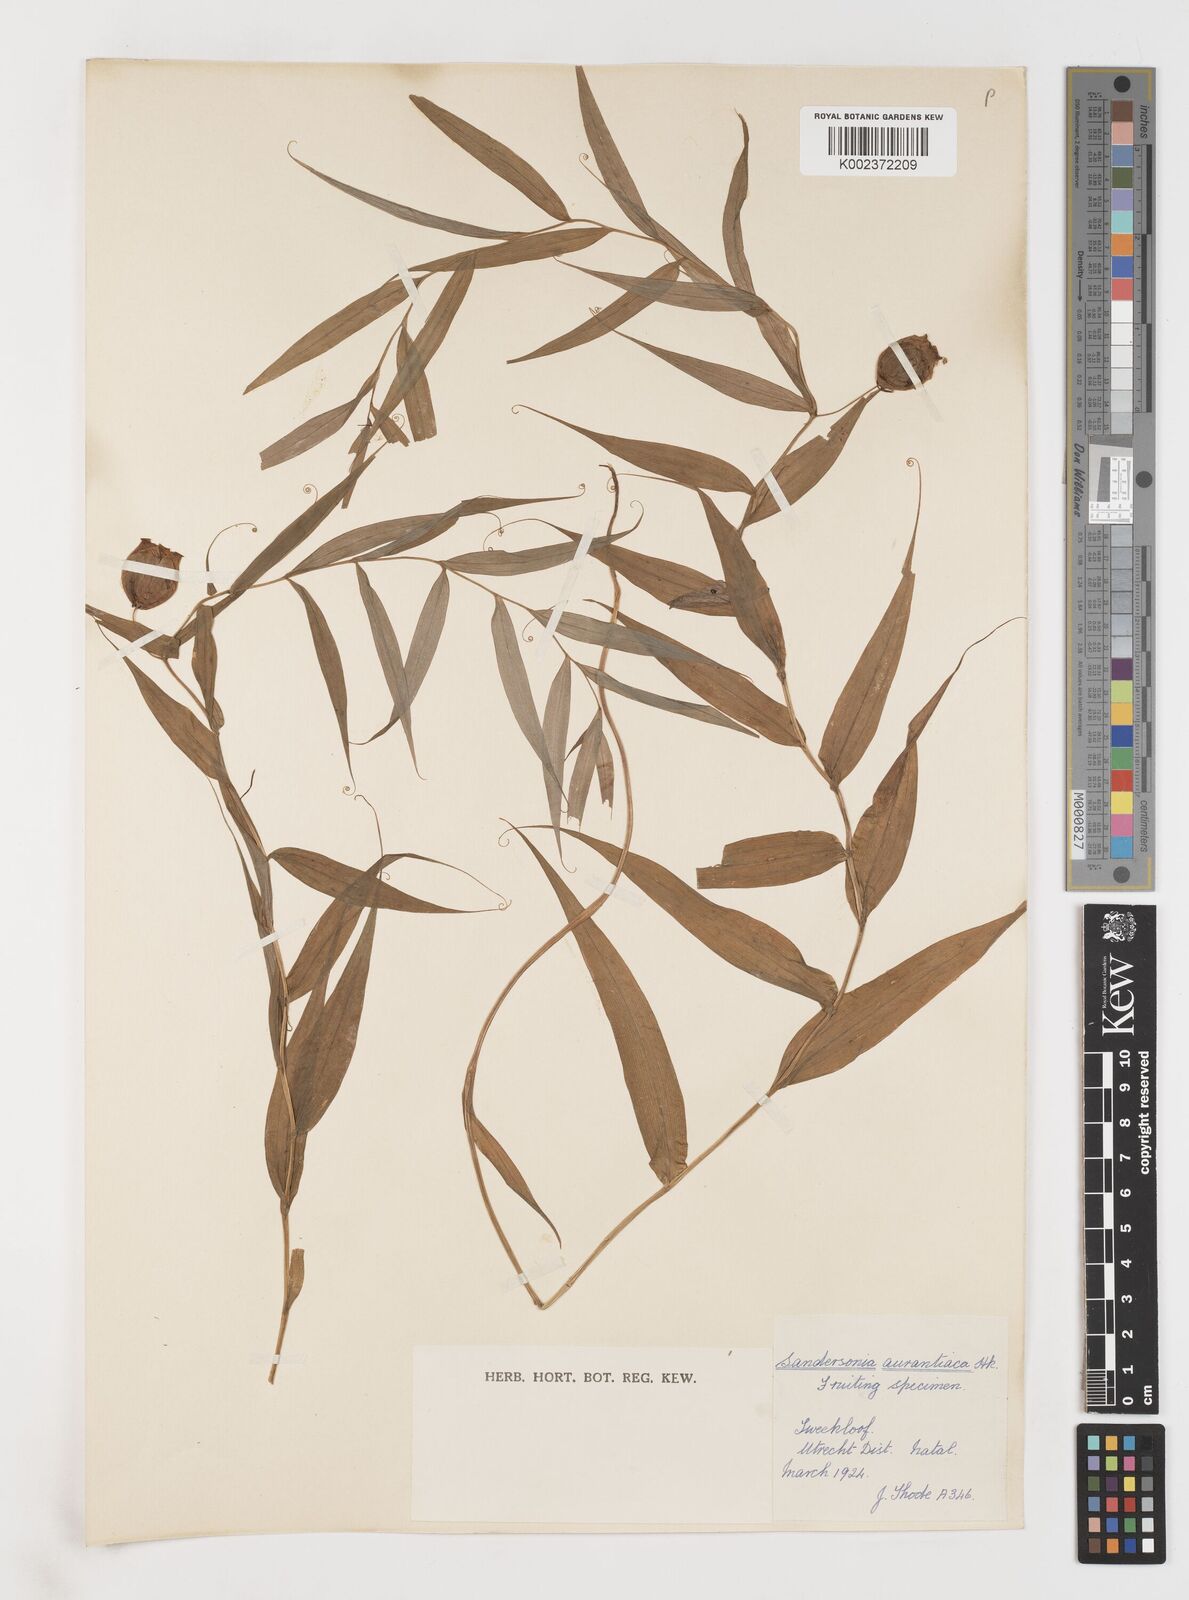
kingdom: Plantae
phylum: Tracheophyta
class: Liliopsida
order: Liliales
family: Colchicaceae
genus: Sandersonia
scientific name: Sandersonia aurantiaca
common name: Chinese-lantern-lily
